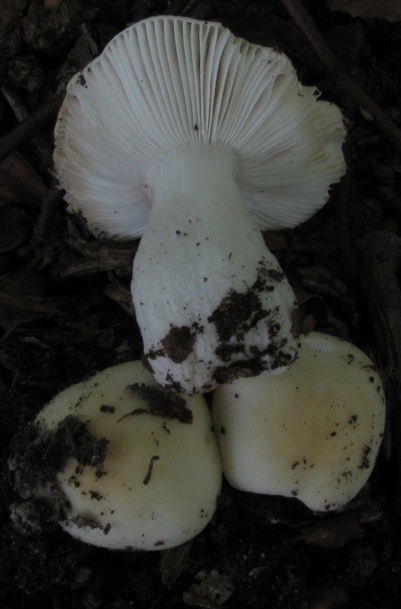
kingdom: Fungi
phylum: Basidiomycota
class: Agaricomycetes
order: Russulales
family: Russulaceae
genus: Russula
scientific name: Russula fragilis
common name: Fragile brittlegill
